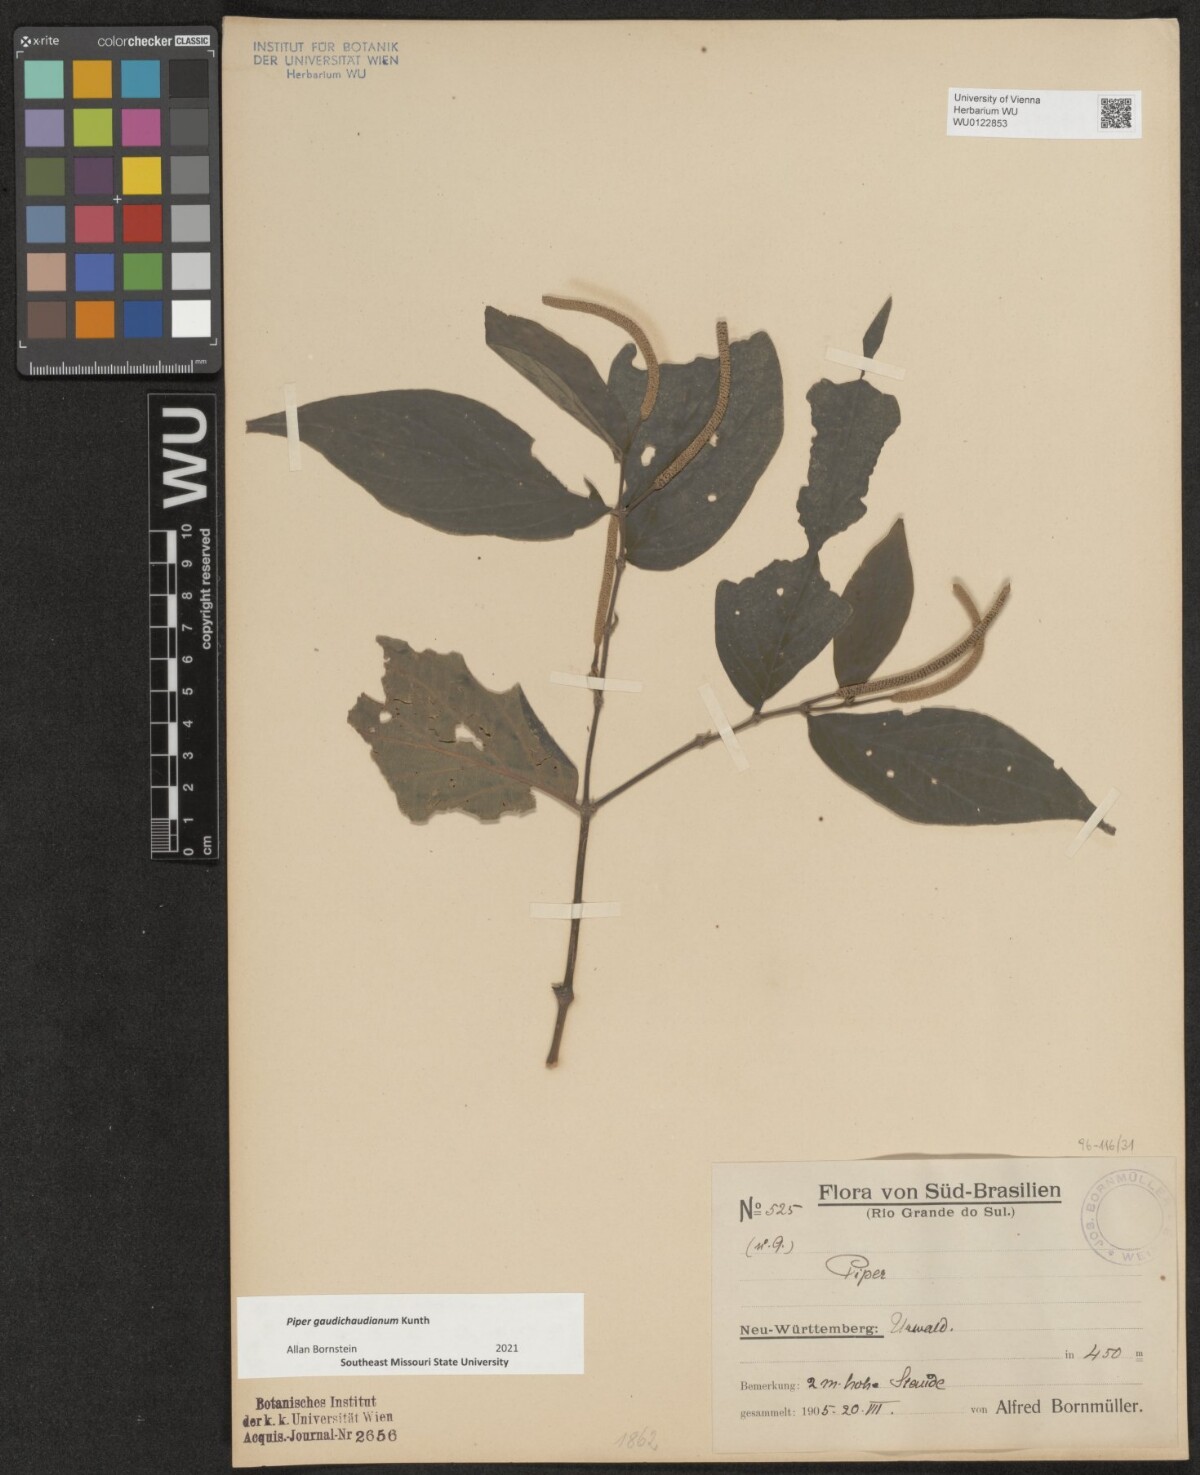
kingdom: Plantae
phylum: Tracheophyta
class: Magnoliopsida
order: Piperales
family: Piperaceae
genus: Piper
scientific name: Piper gaudichaudianum
